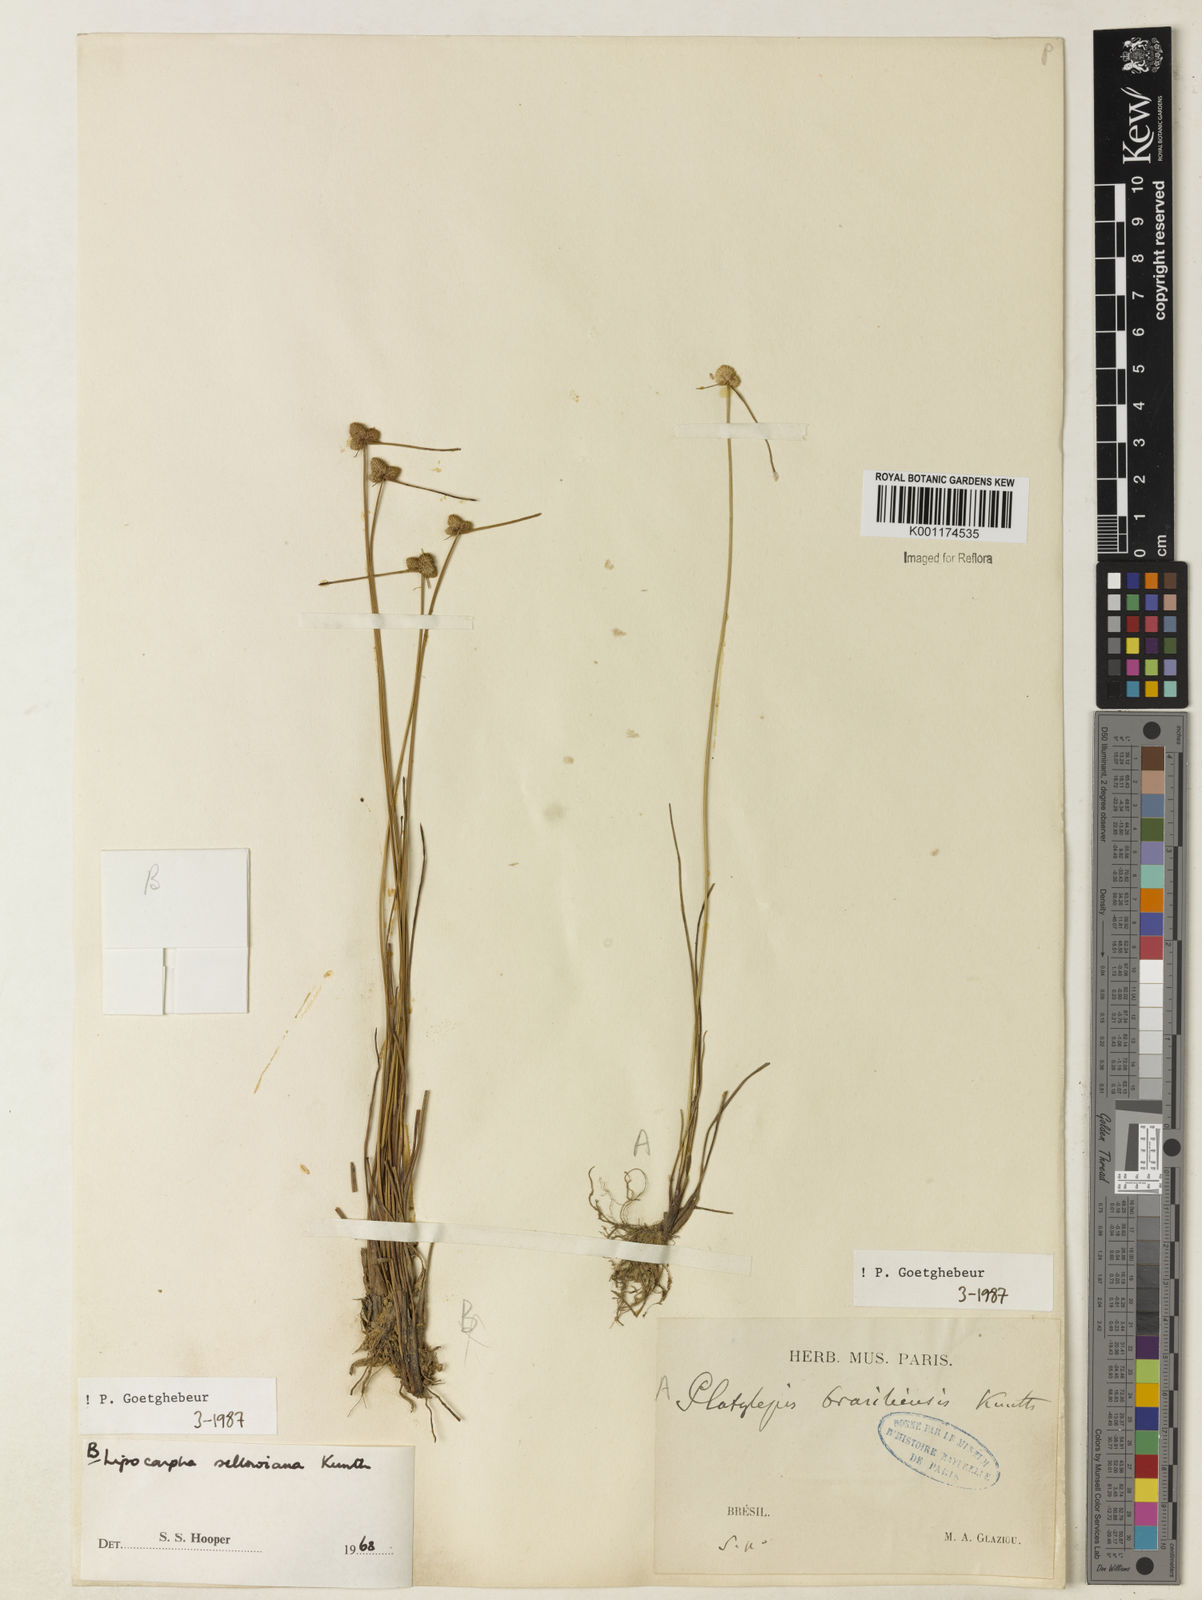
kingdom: Plantae
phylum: Tracheophyta
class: Liliopsida
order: Poales
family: Cyperaceae
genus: Cyperus
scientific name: Cyperus lanceolatus
